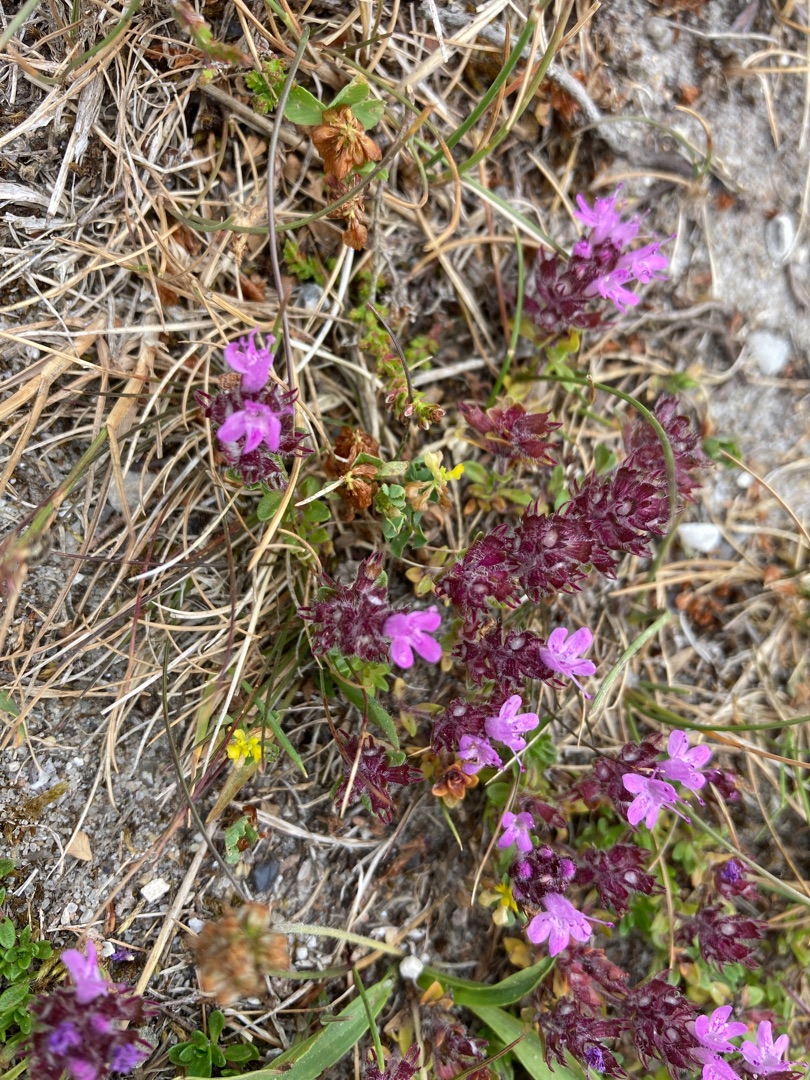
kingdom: Plantae
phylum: Tracheophyta
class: Magnoliopsida
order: Lamiales
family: Lamiaceae
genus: Thymus
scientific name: Thymus serpyllum
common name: Smalbladet timian
